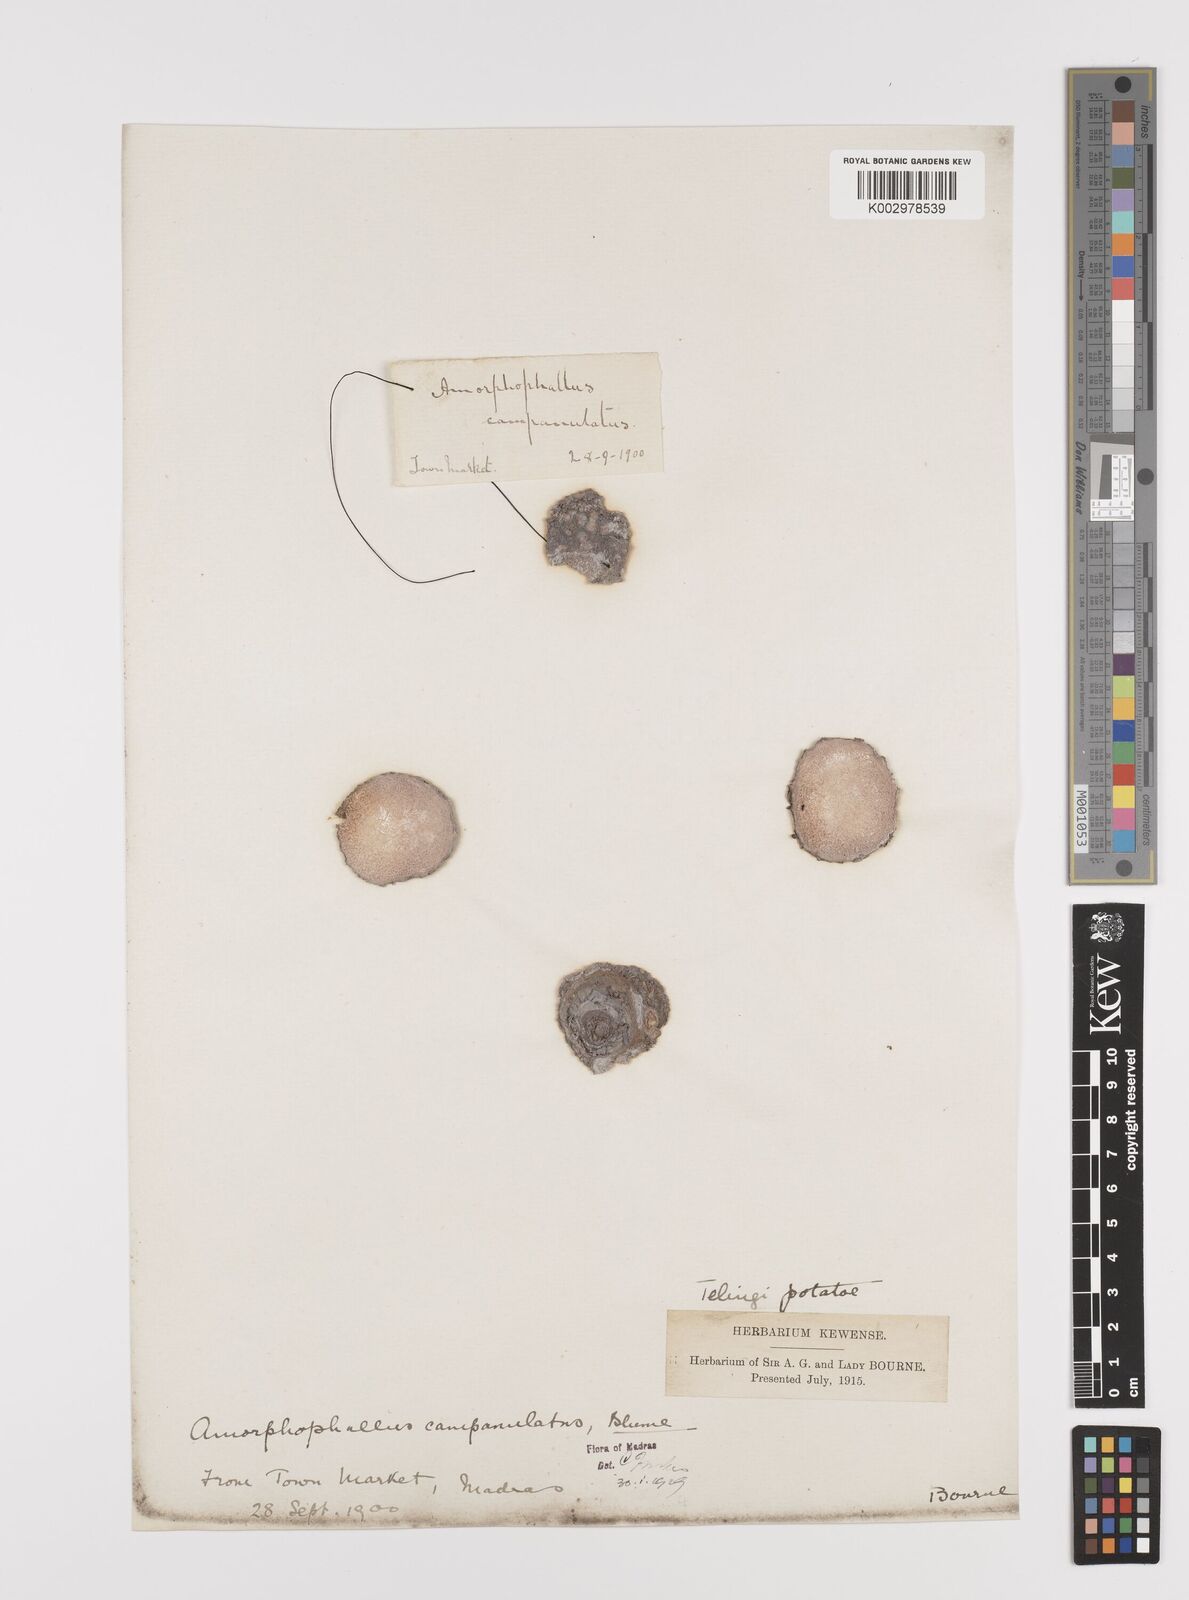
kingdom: Plantae
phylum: Tracheophyta
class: Liliopsida
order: Alismatales
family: Araceae
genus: Amorphophallus
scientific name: Amorphophallus paeoniifolius
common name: Telinga-potato
